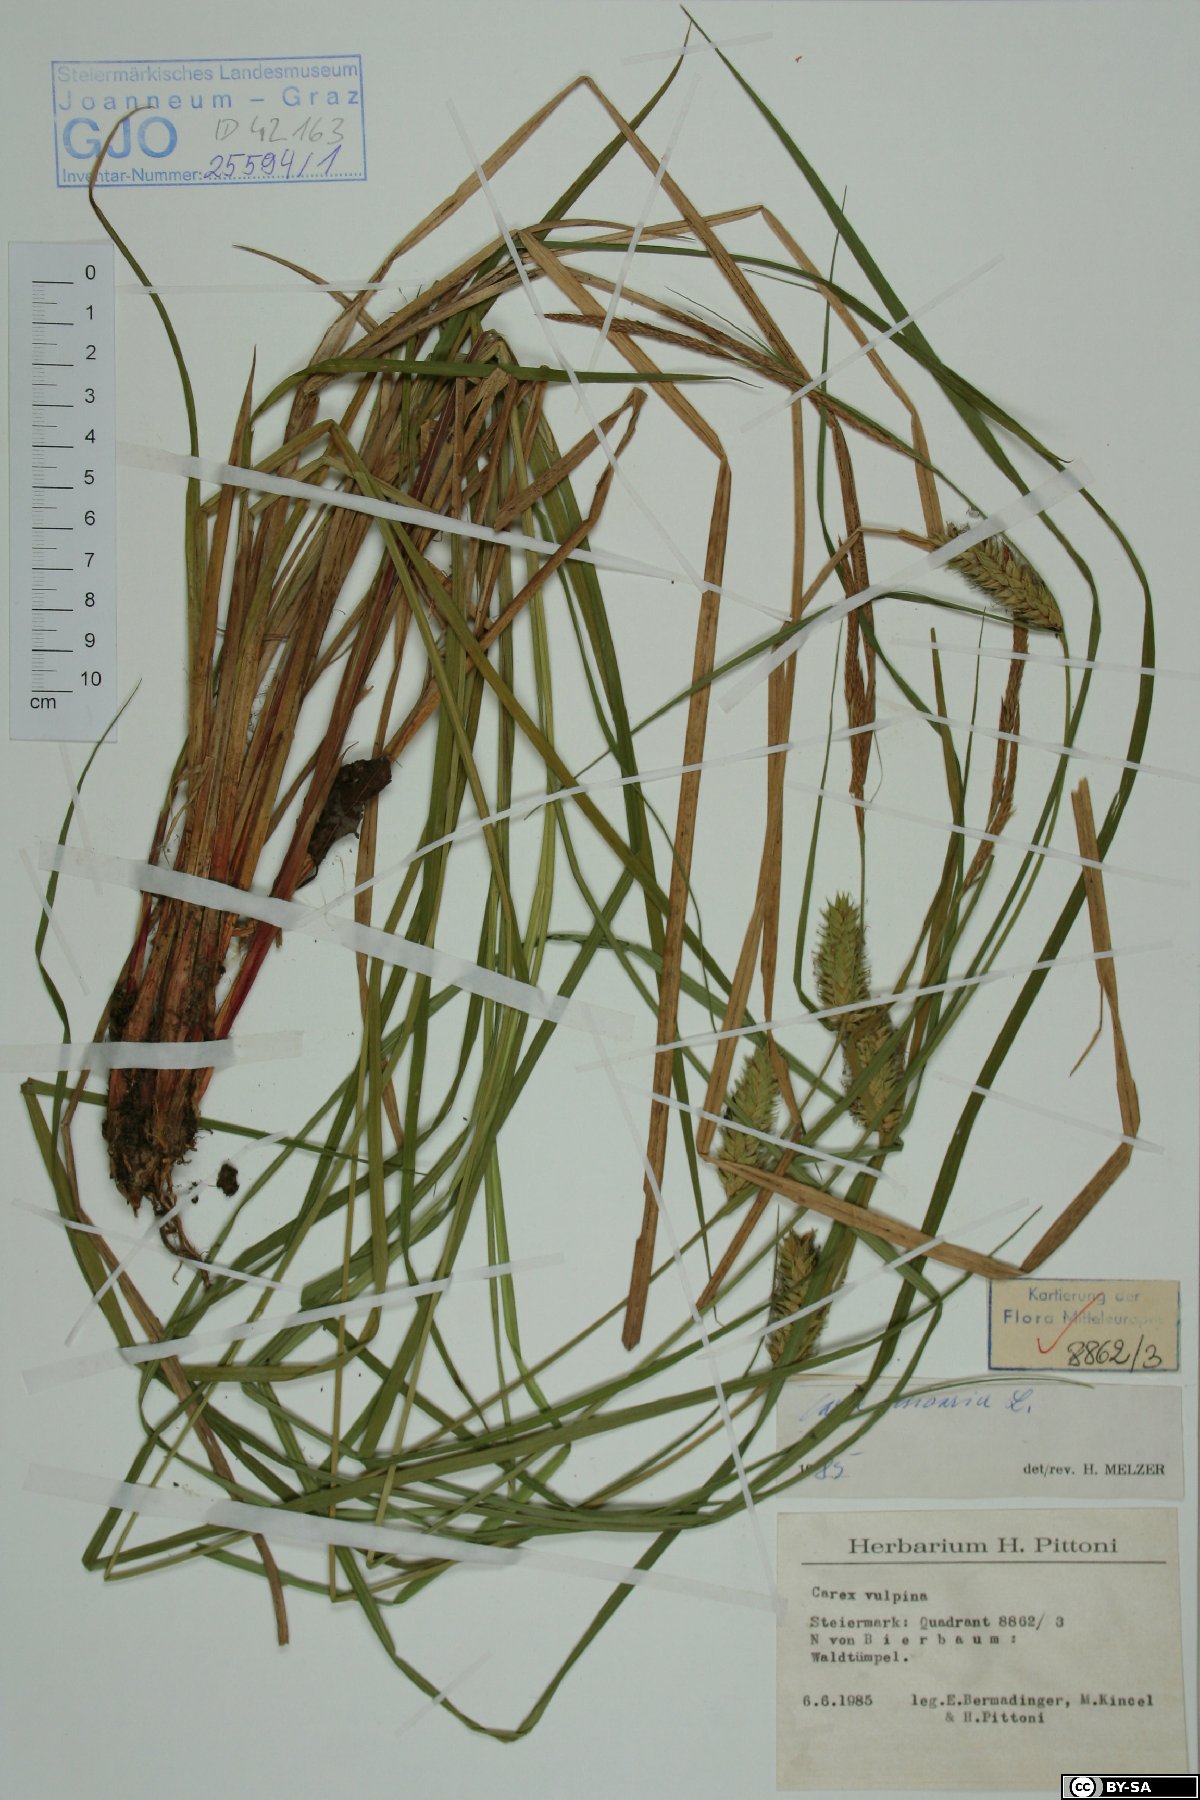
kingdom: Plantae
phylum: Tracheophyta
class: Liliopsida
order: Poales
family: Cyperaceae
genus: Carex
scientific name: Carex vesicaria
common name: Bladder-sedge
